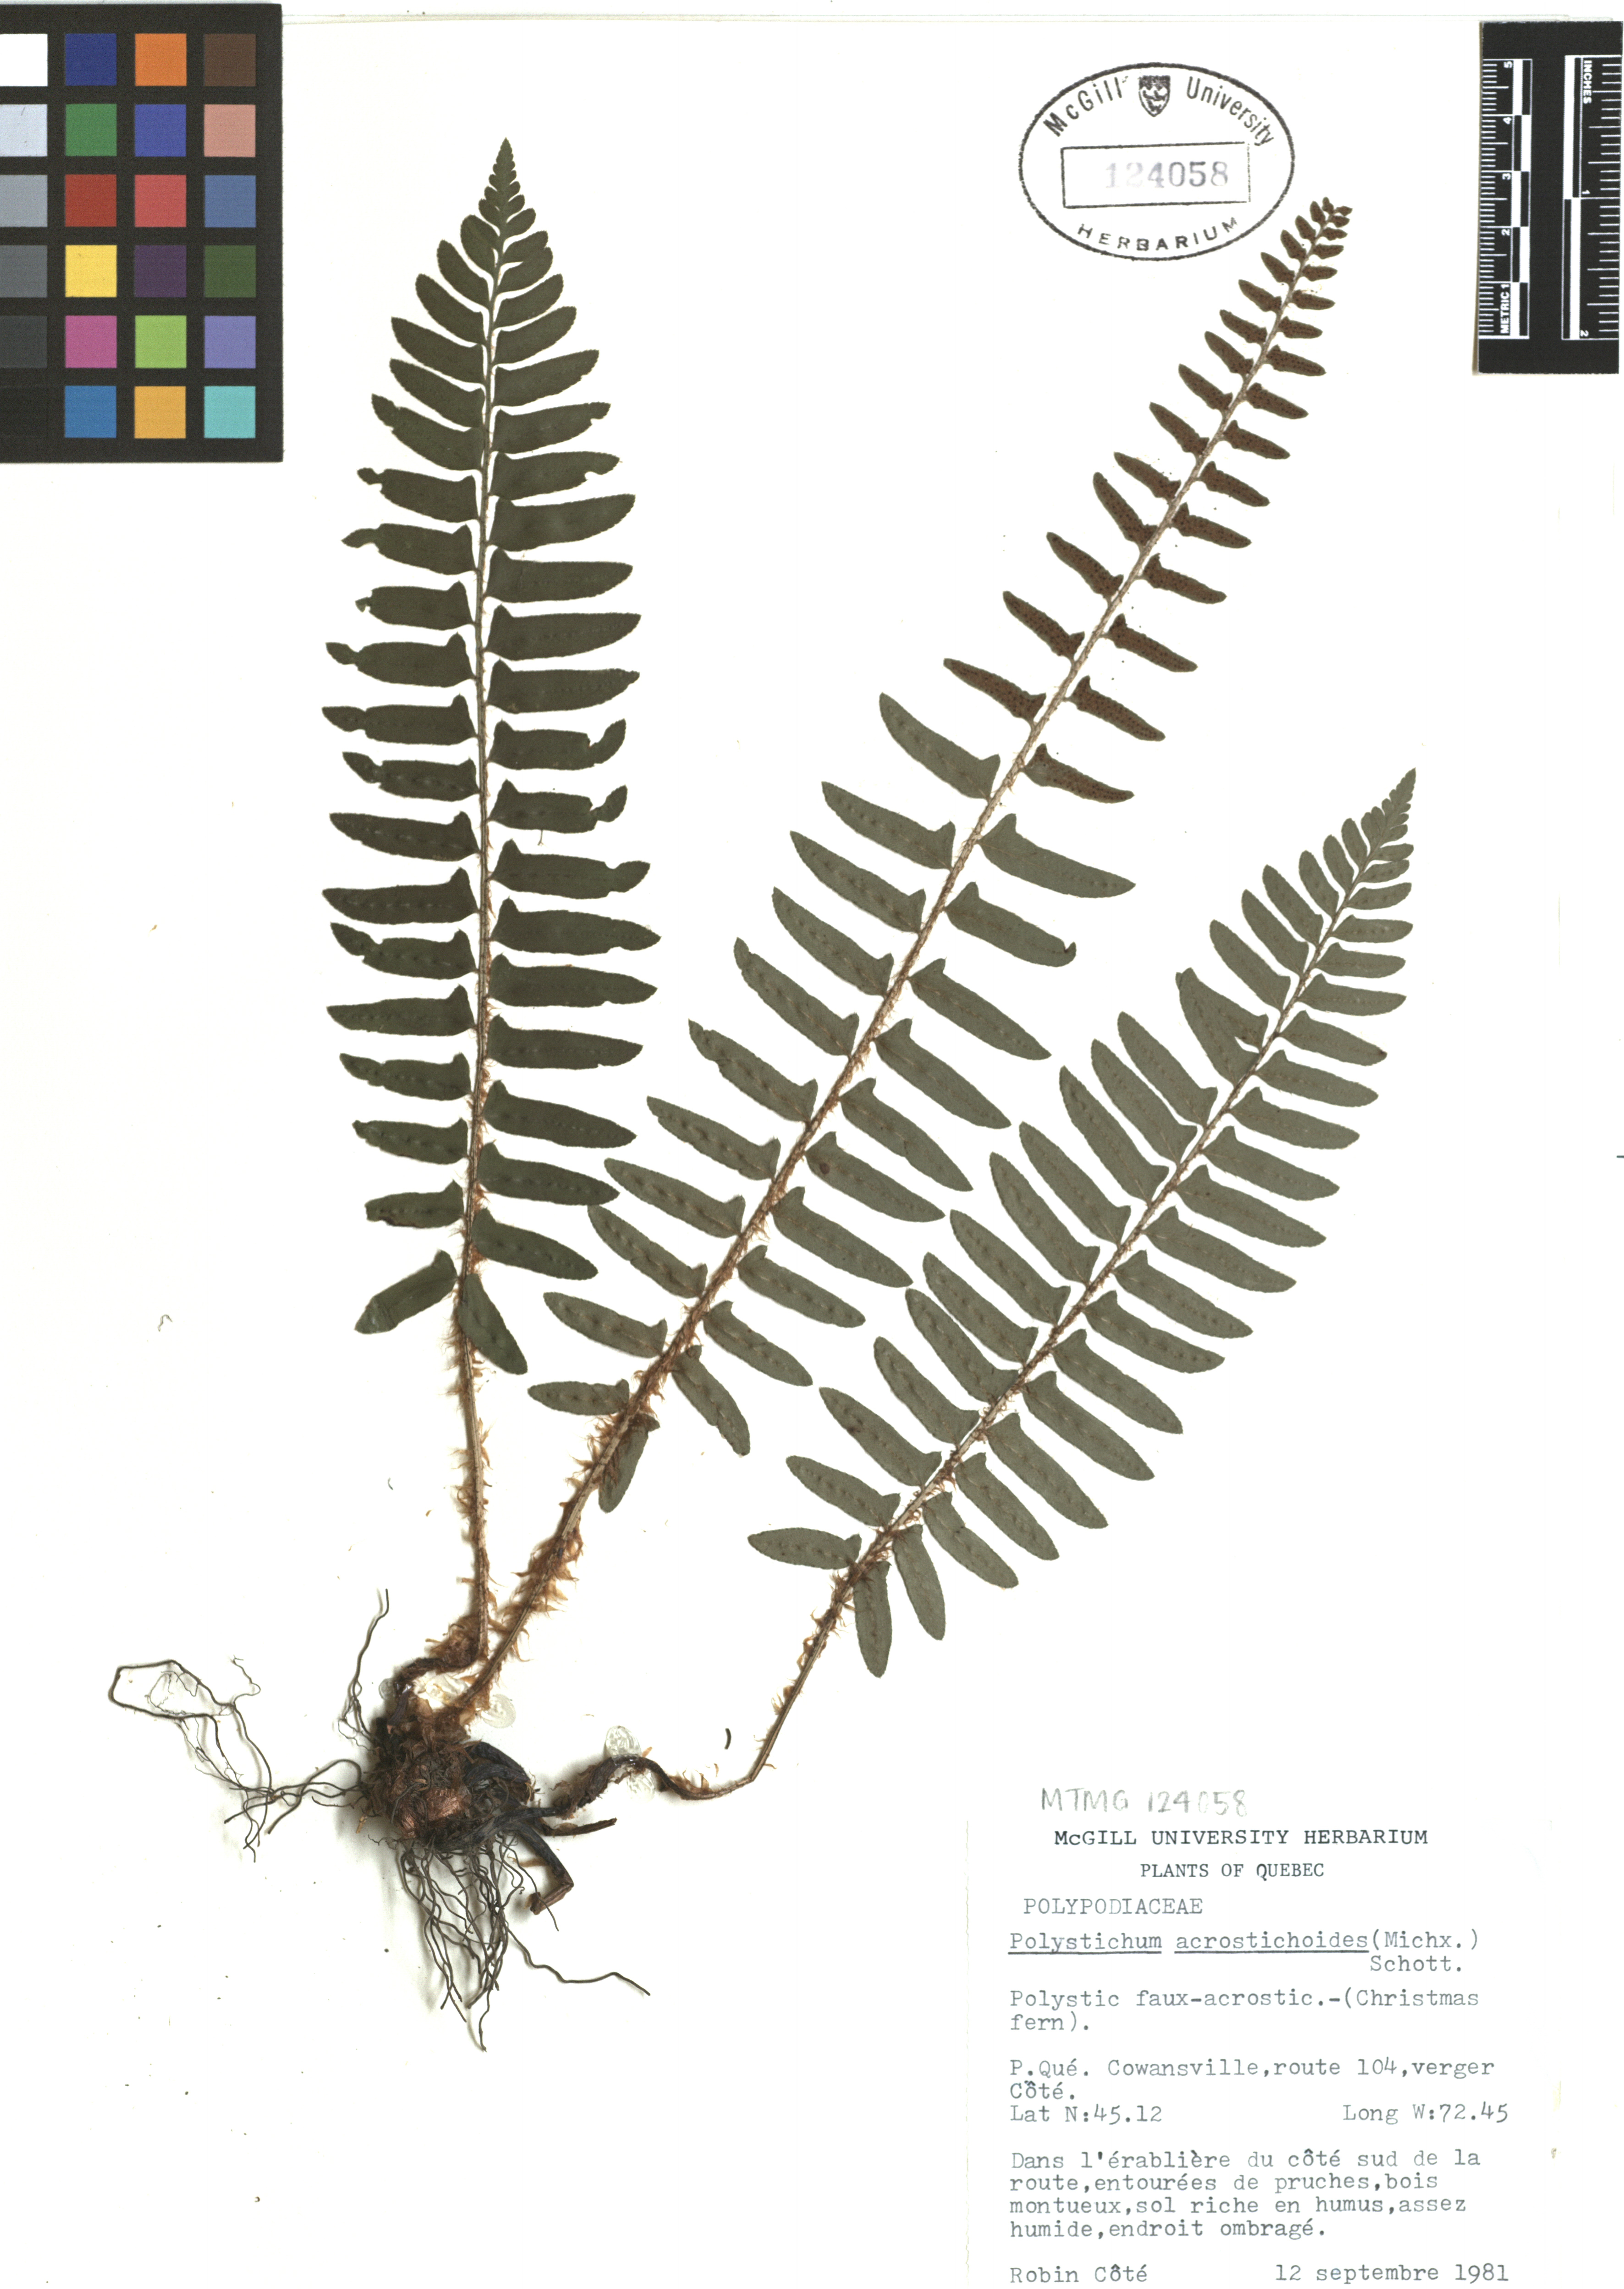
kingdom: Plantae
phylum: Tracheophyta
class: Polypodiopsida
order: Polypodiales
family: Dryopteridaceae
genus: Polystichum
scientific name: Polystichum acrostichoides
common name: Christmas fern
